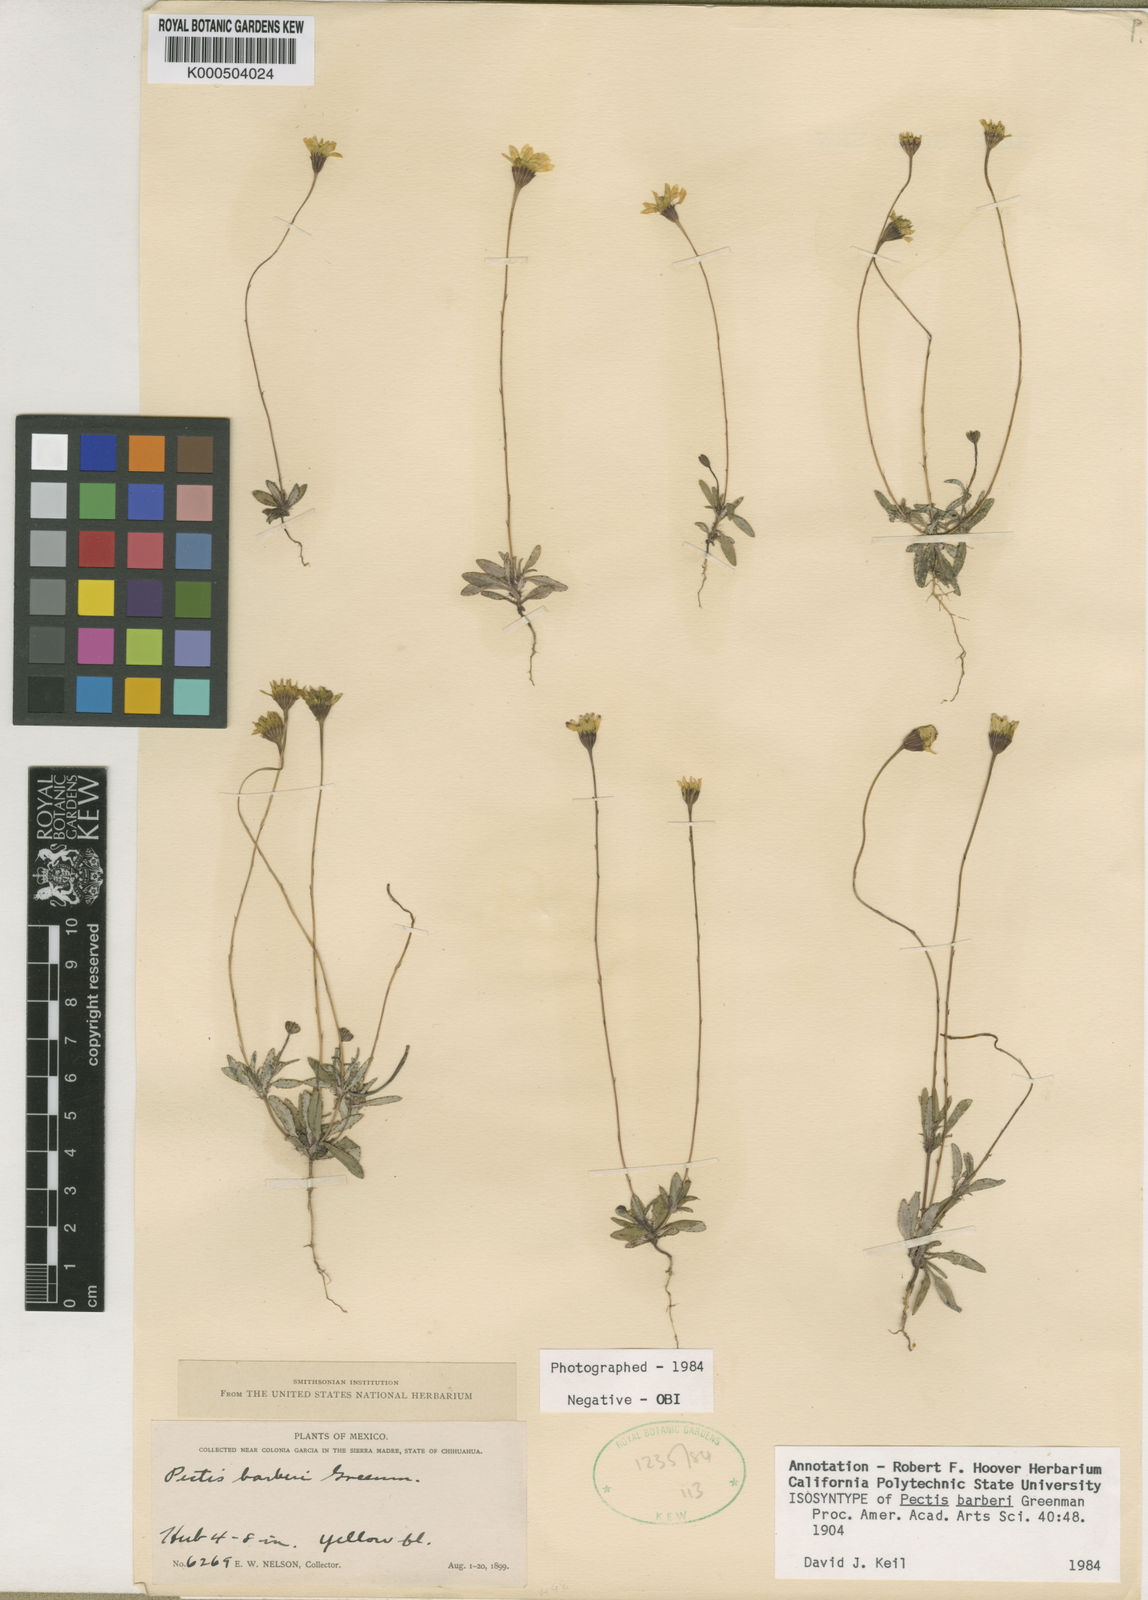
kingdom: Plantae
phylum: Tracheophyta
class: Magnoliopsida
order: Asterales
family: Asteraceae
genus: Pectis
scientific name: Pectis barberi
